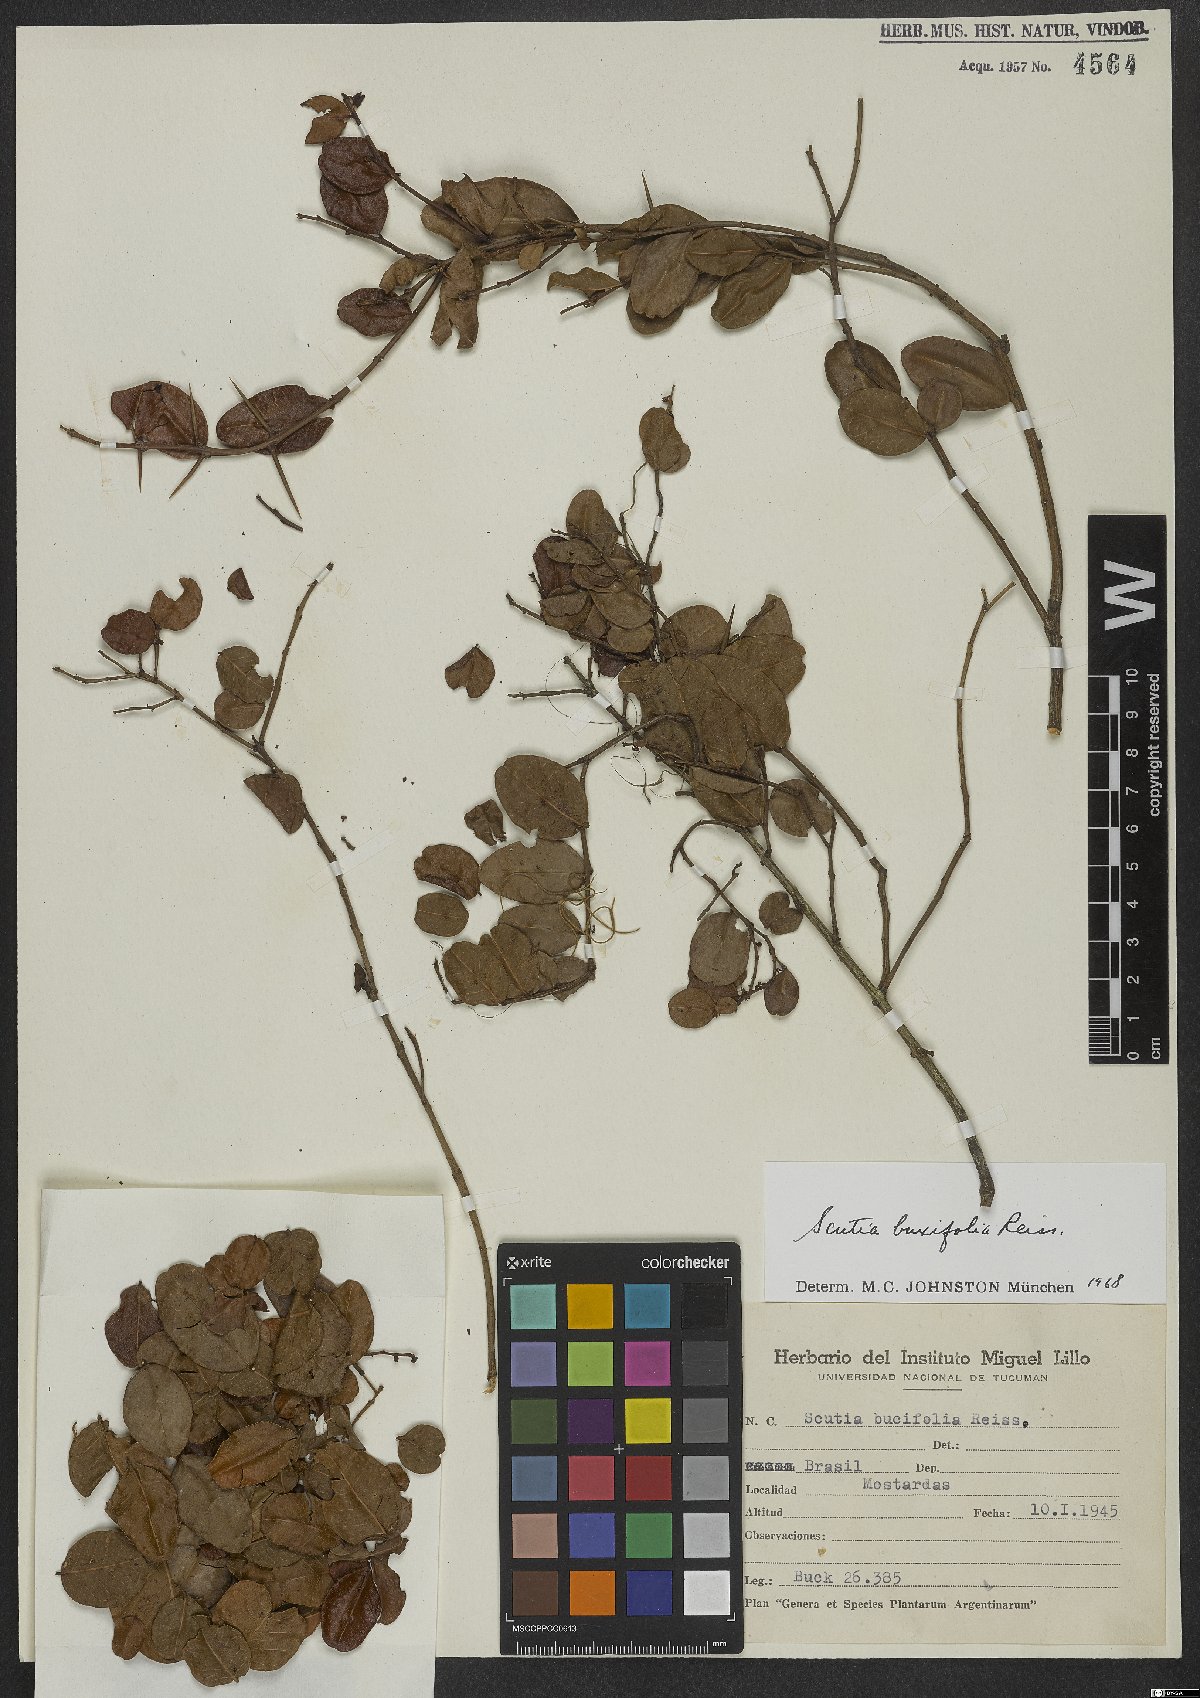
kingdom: Plantae
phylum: Tracheophyta
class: Magnoliopsida
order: Rosales
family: Rhamnaceae
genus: Scutia
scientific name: Scutia buxifolia
